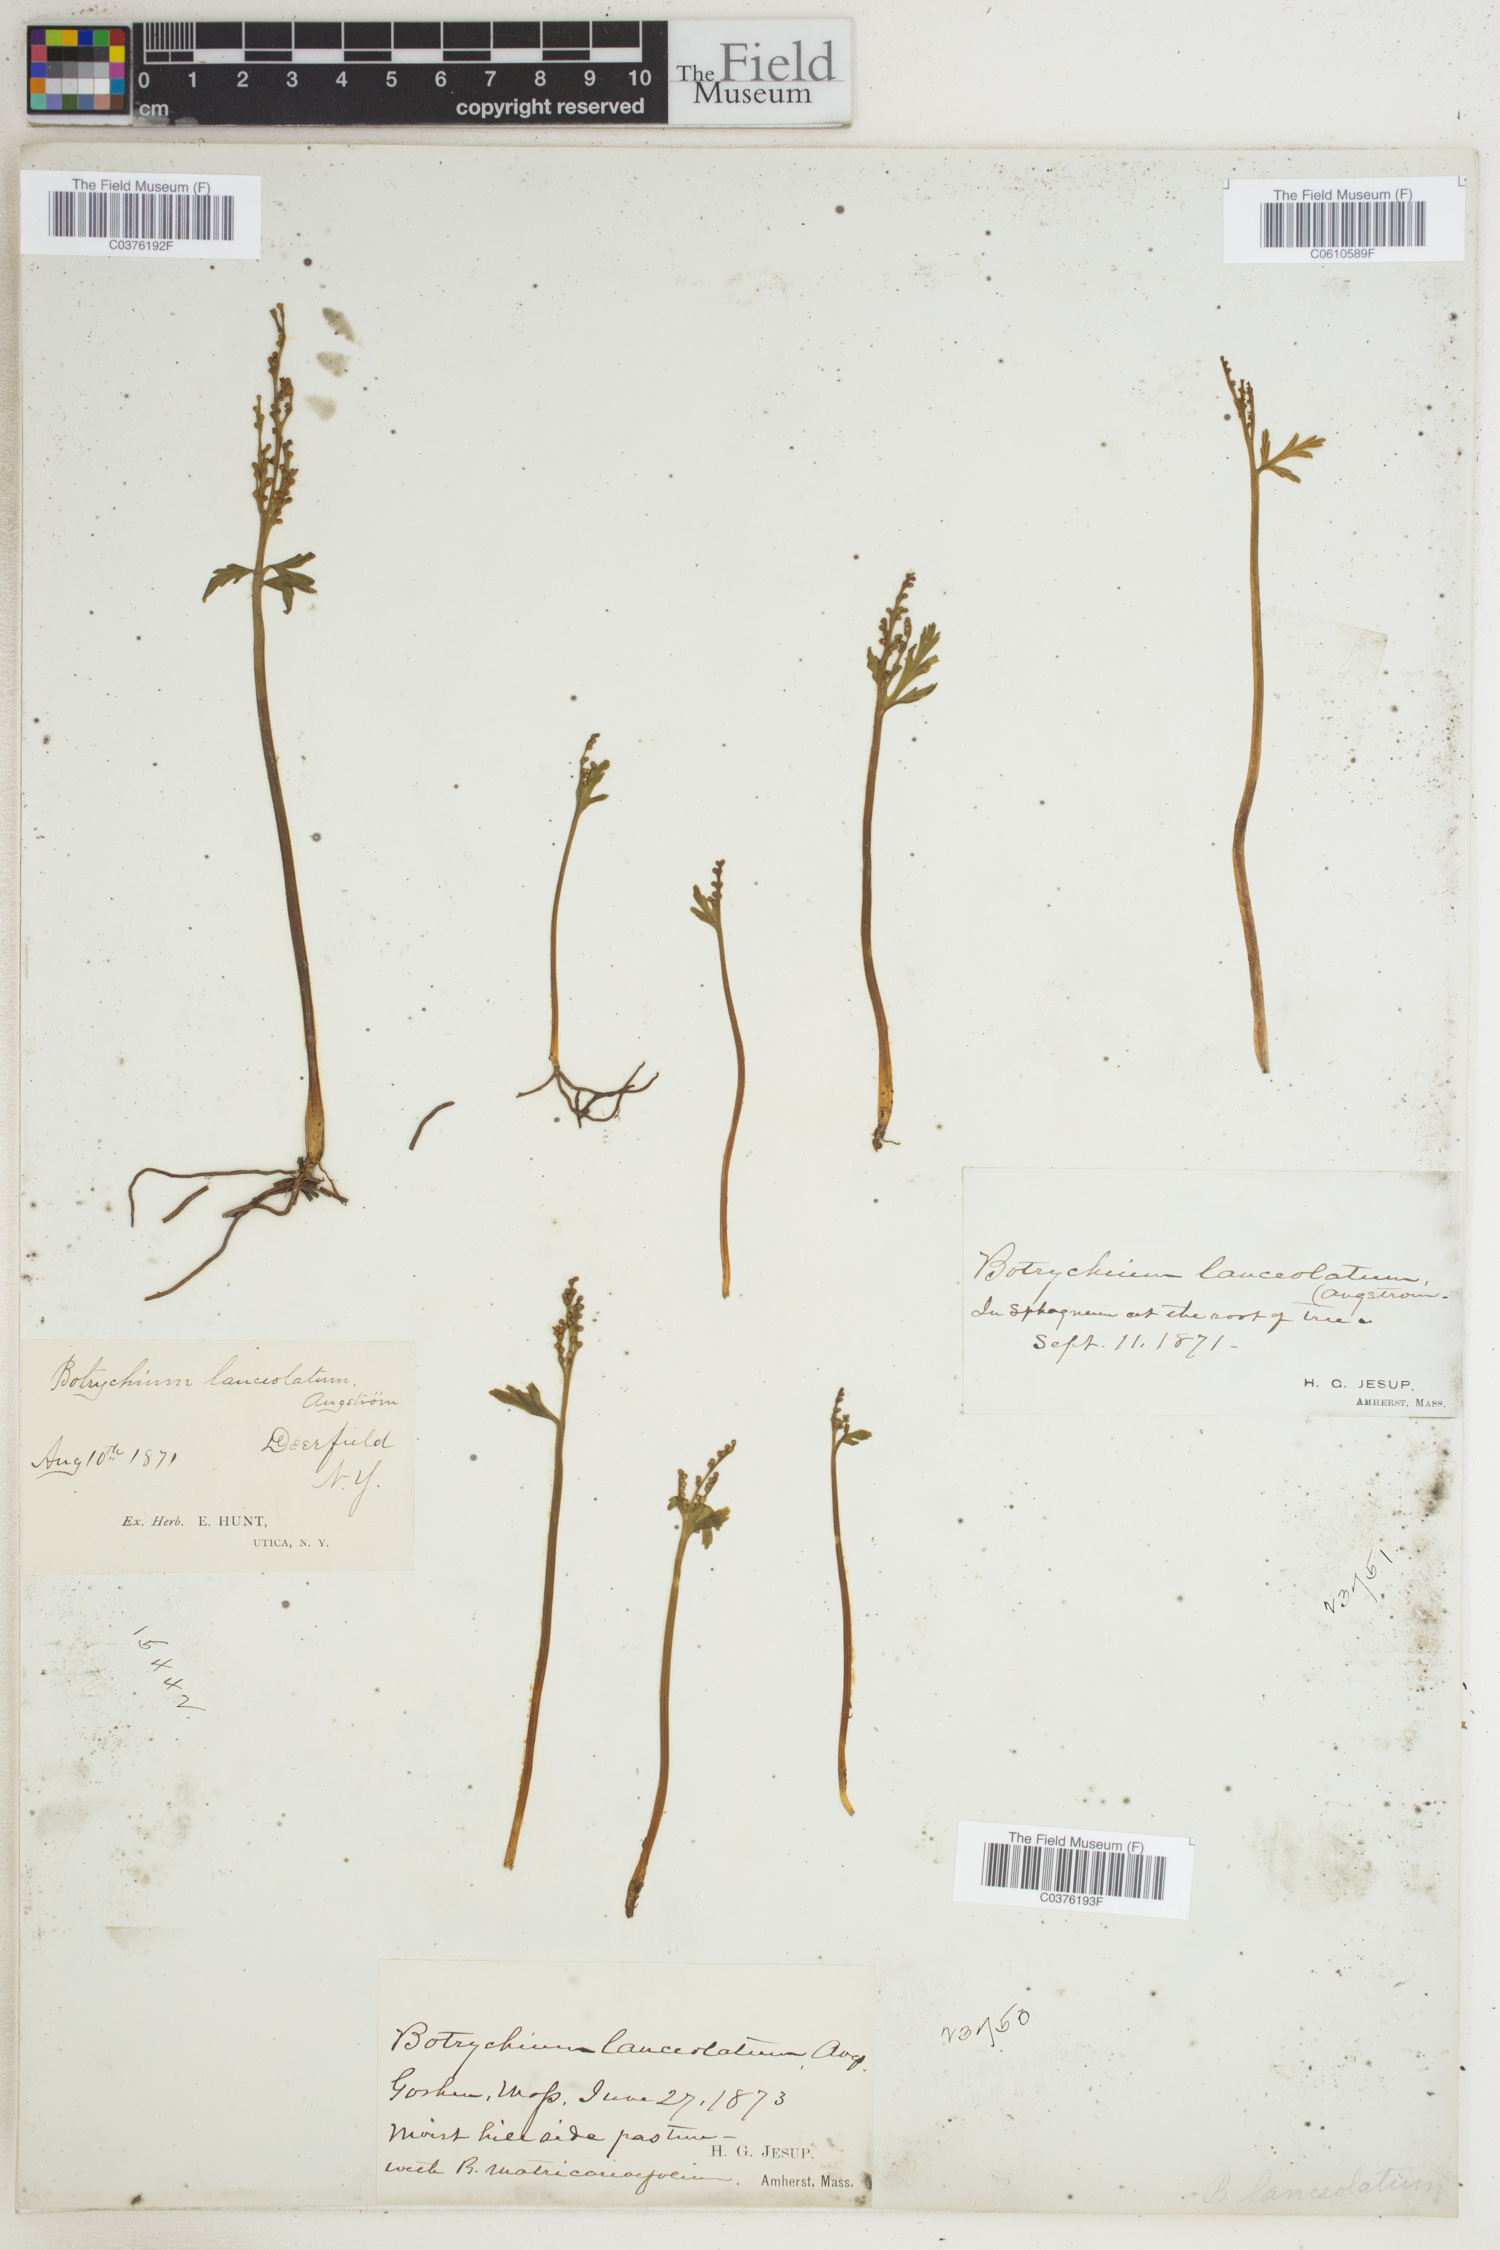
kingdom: Plantae
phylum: Tracheophyta
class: Polypodiopsida
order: Ophioglossales
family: Ophioglossaceae
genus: Botrychium
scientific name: Botrychium lanceolatum
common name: Lance-leaved moonwort
